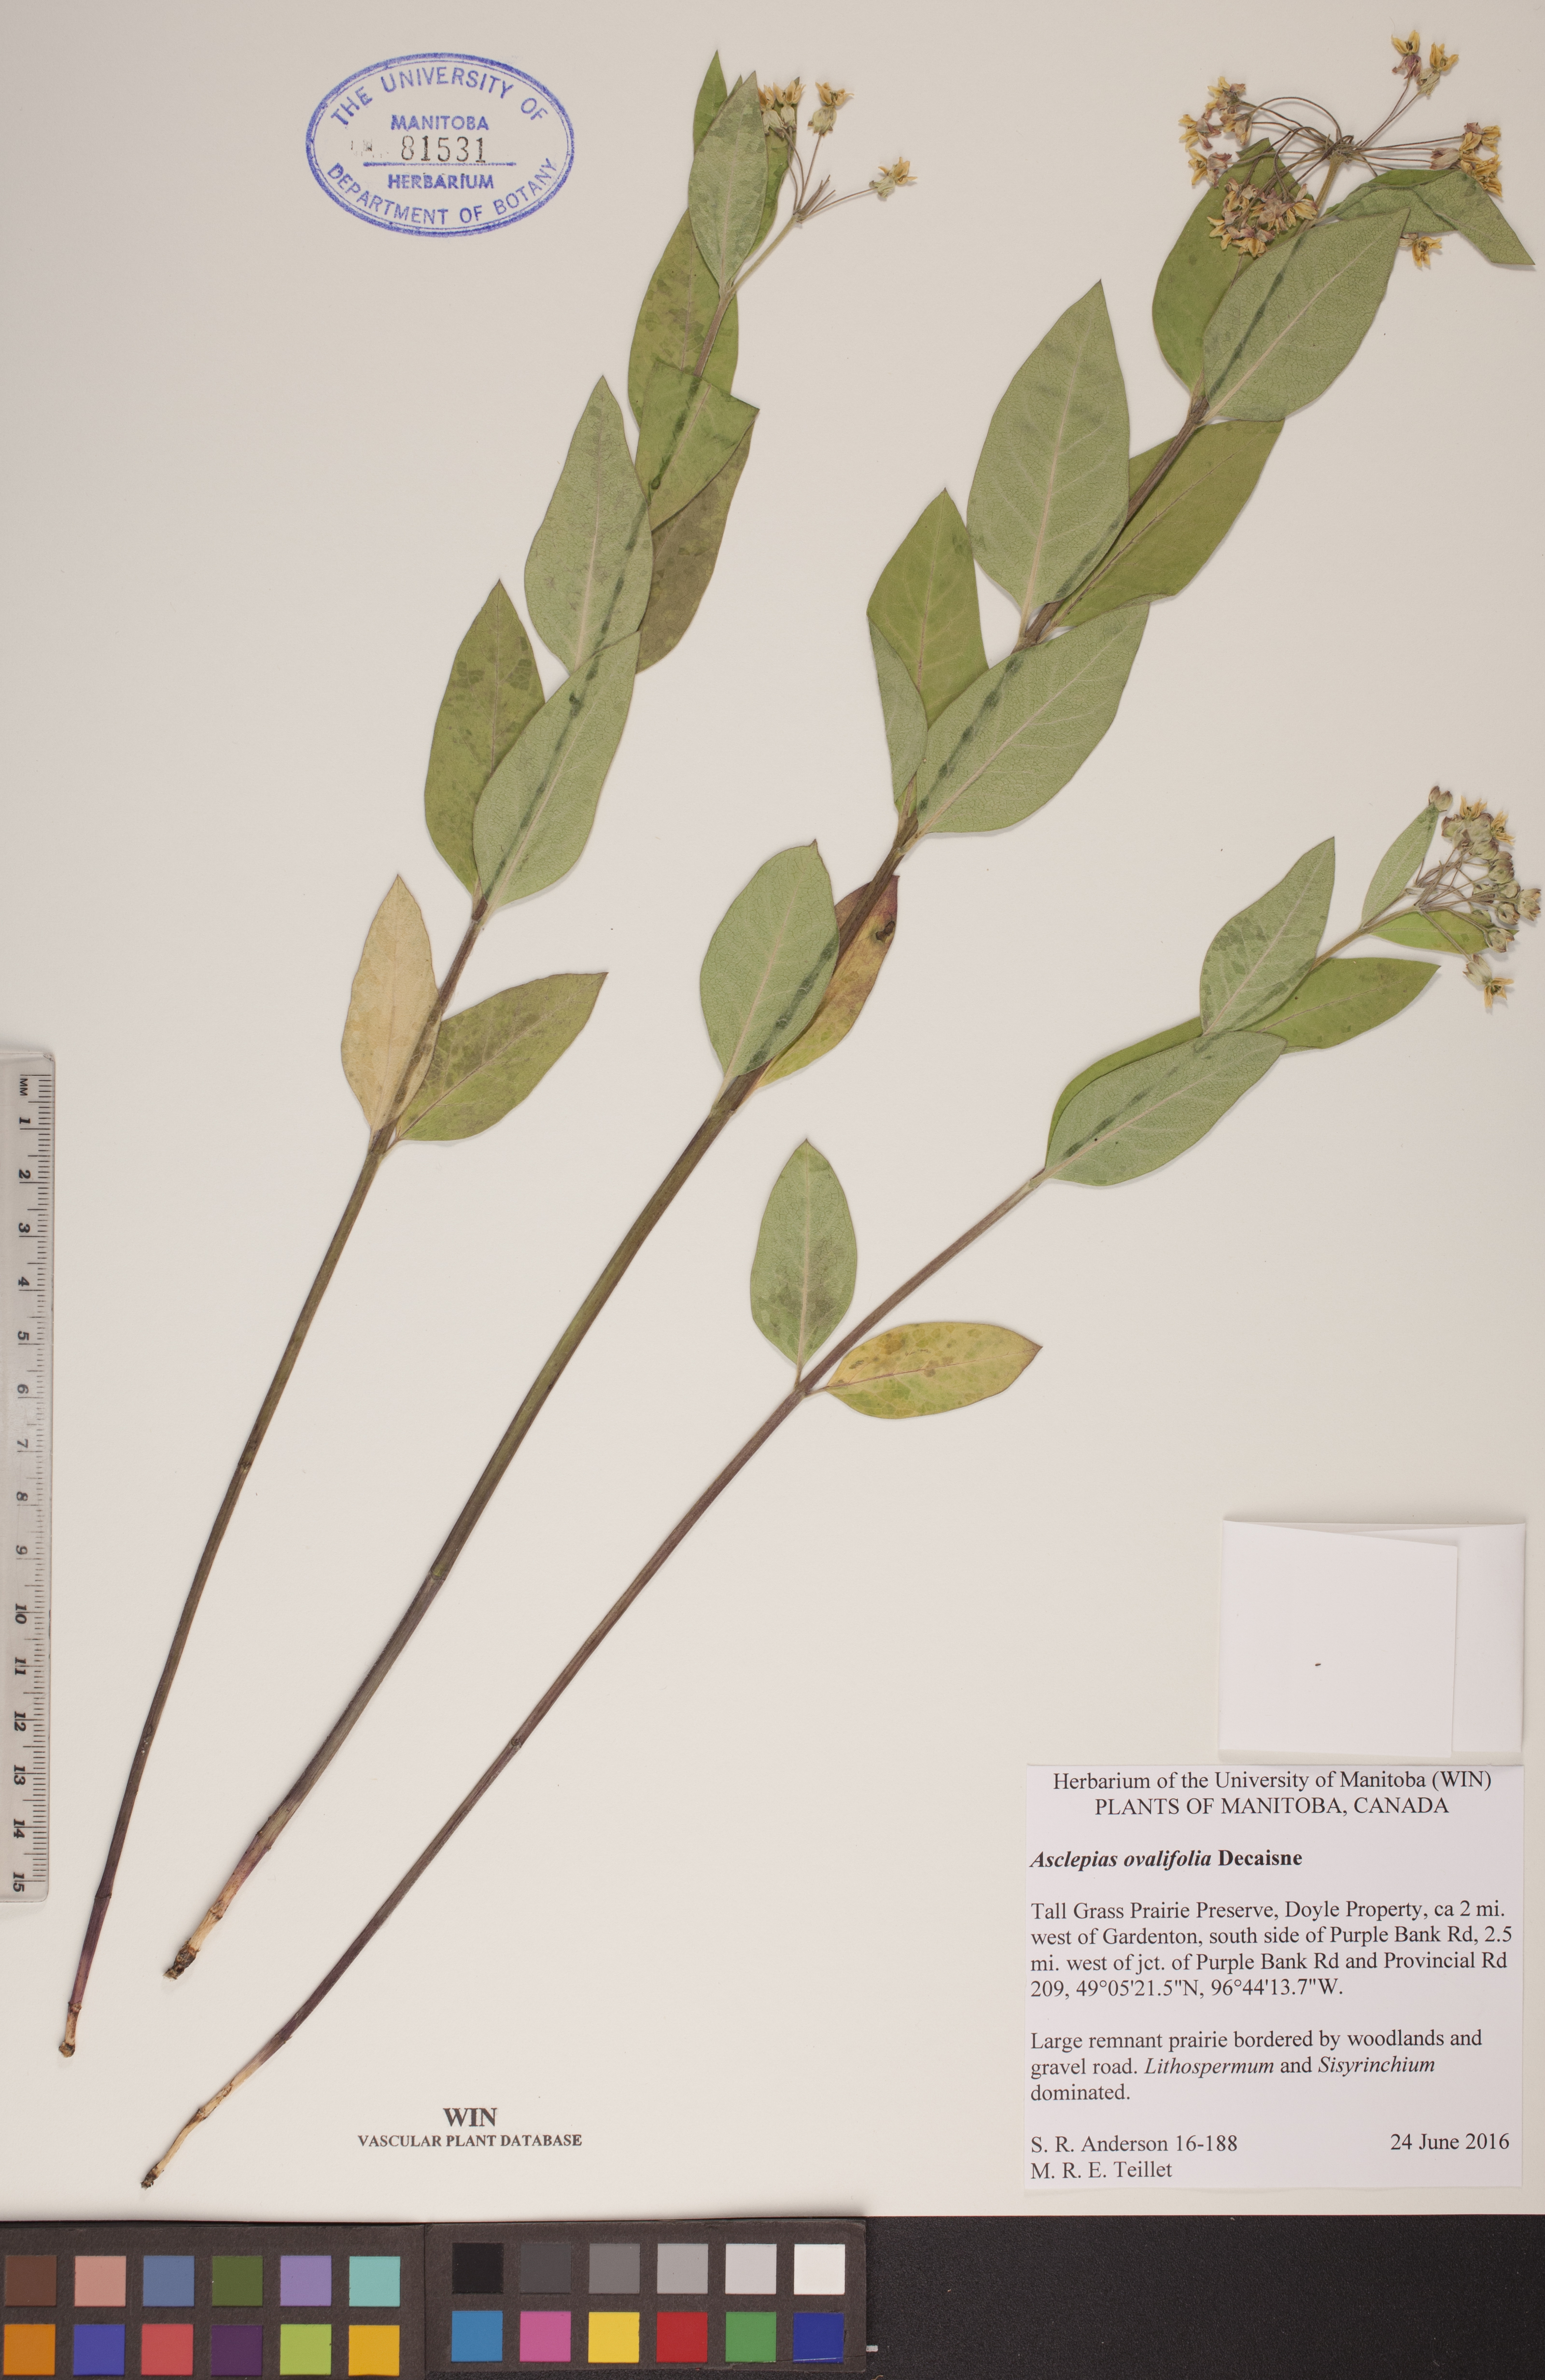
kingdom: Plantae
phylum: Tracheophyta
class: Magnoliopsida
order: Gentianales
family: Apocynaceae
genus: Asclepias
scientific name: Asclepias ovalifolia
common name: Dwarf milkweed
